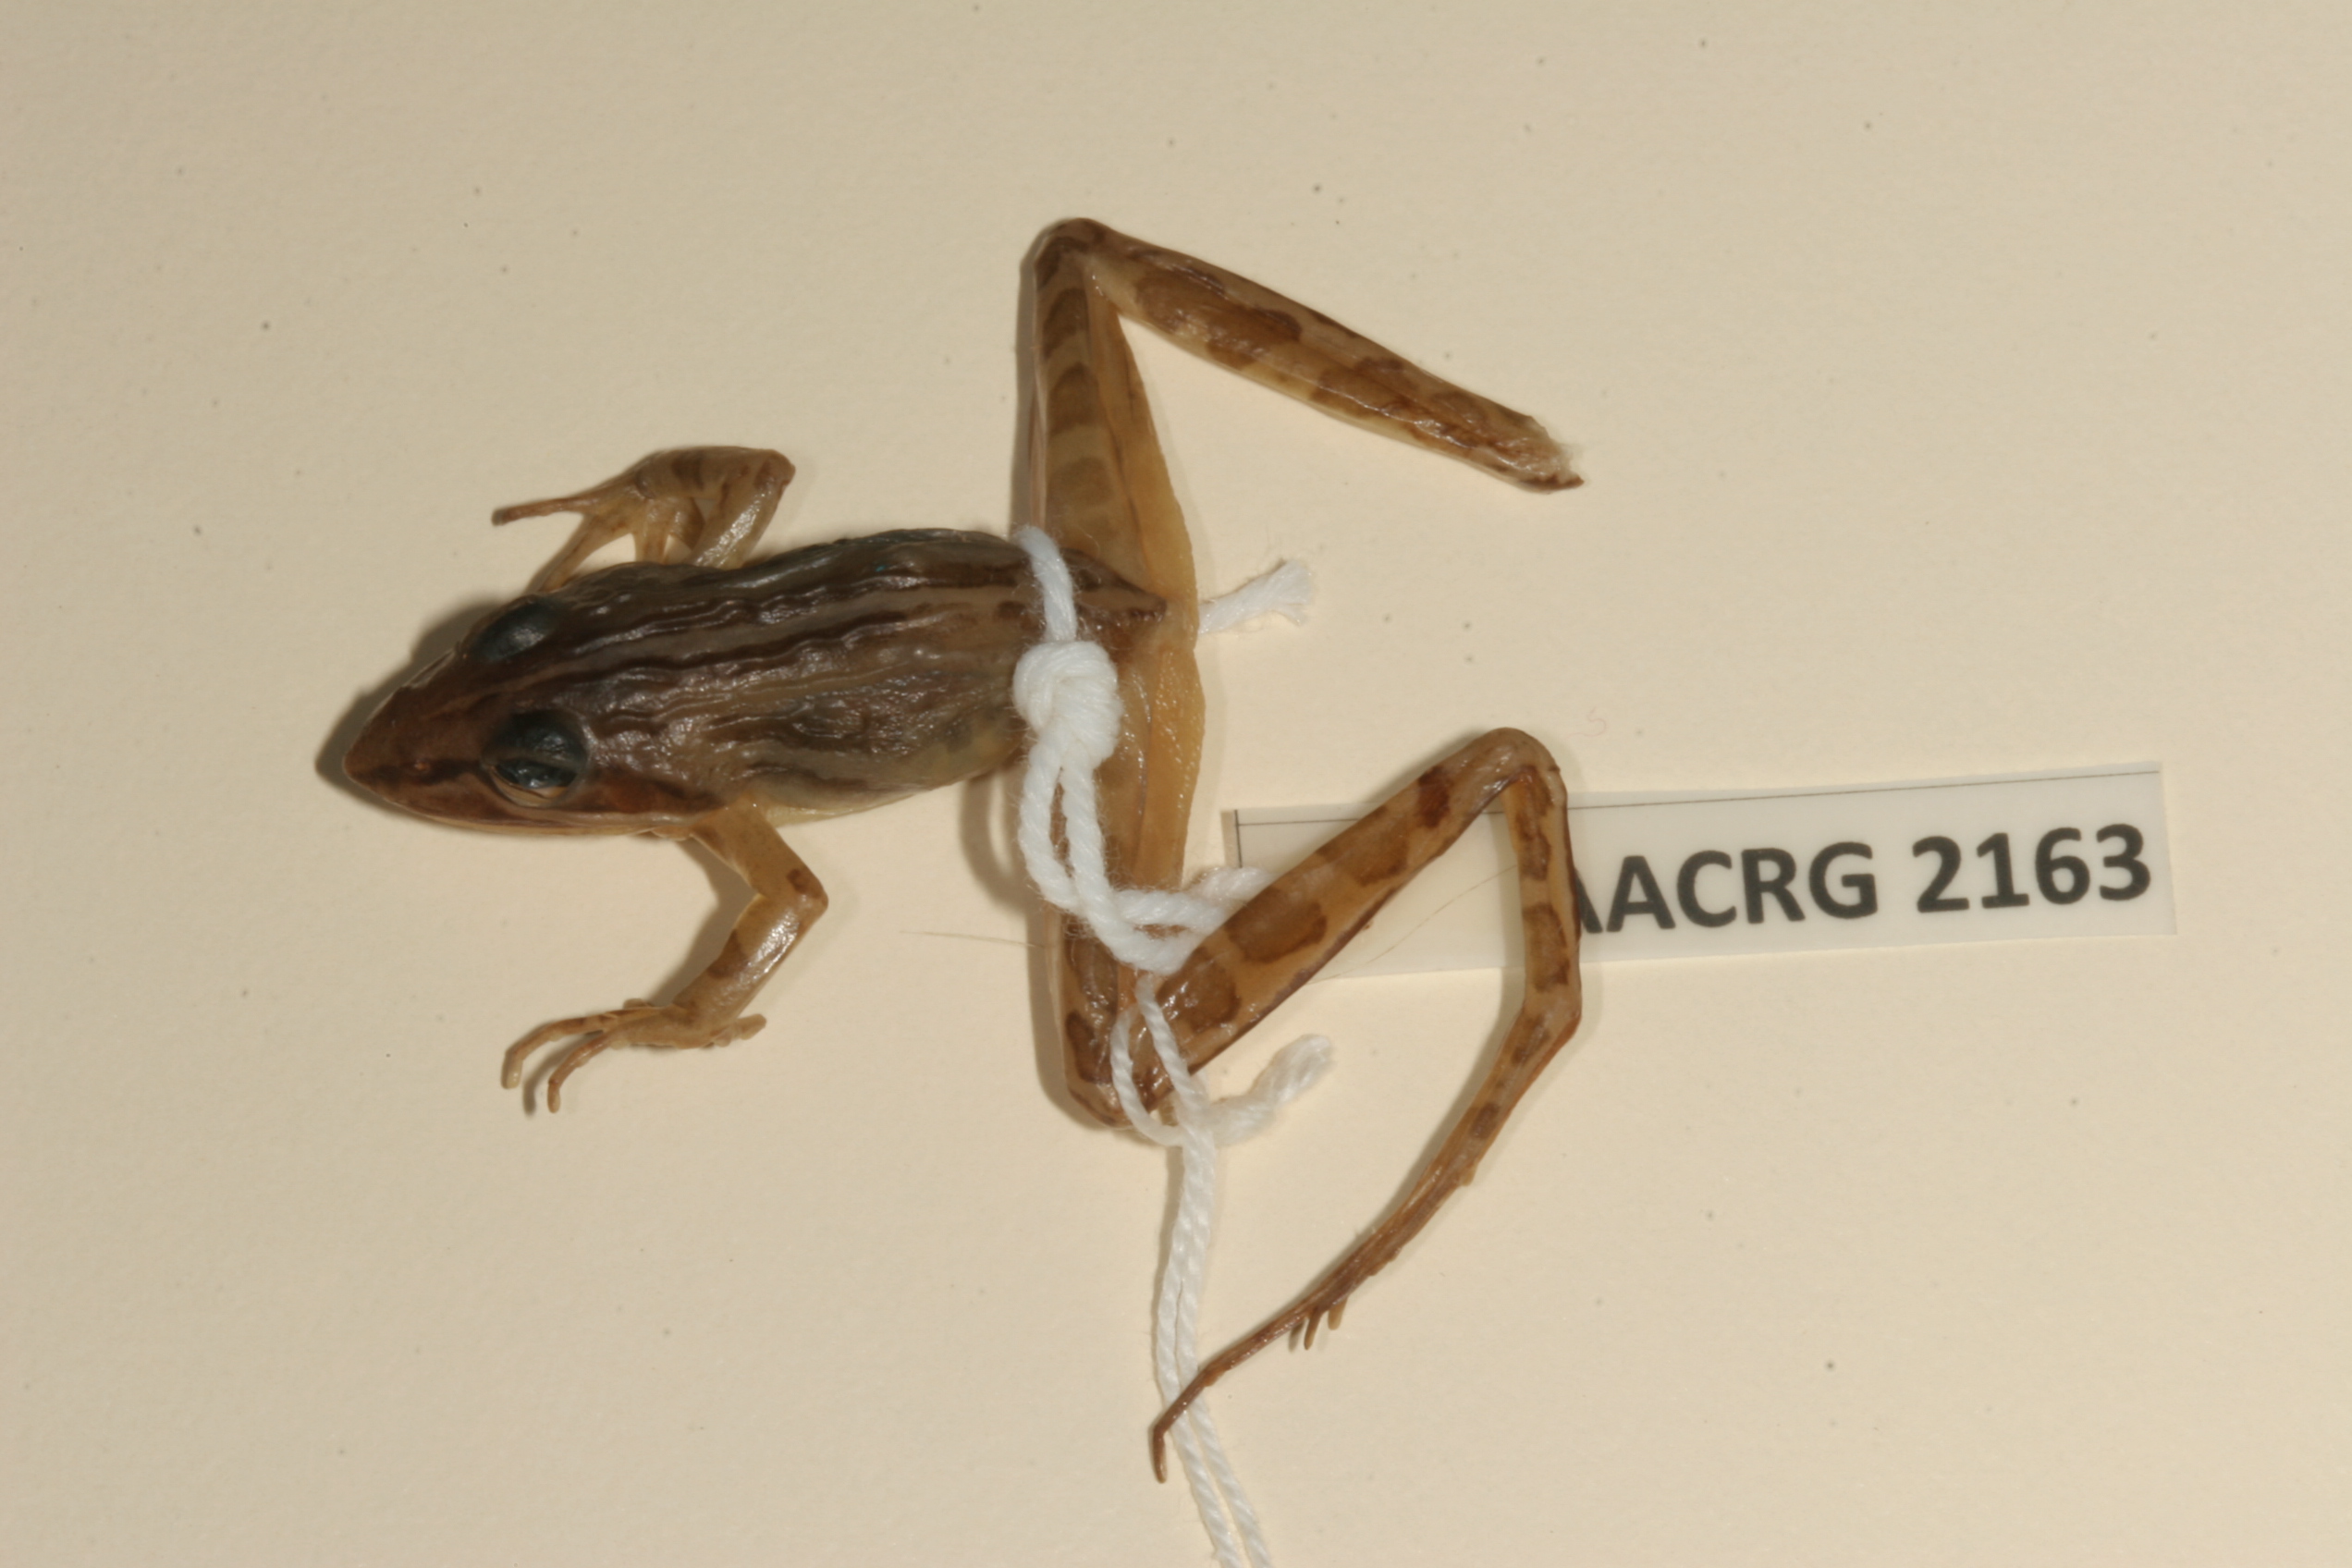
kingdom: Animalia
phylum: Chordata
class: Amphibia
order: Anura
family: Pyxicephalidae
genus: Strongylopus
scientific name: Strongylopus bonaespei
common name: Banded stream frog
